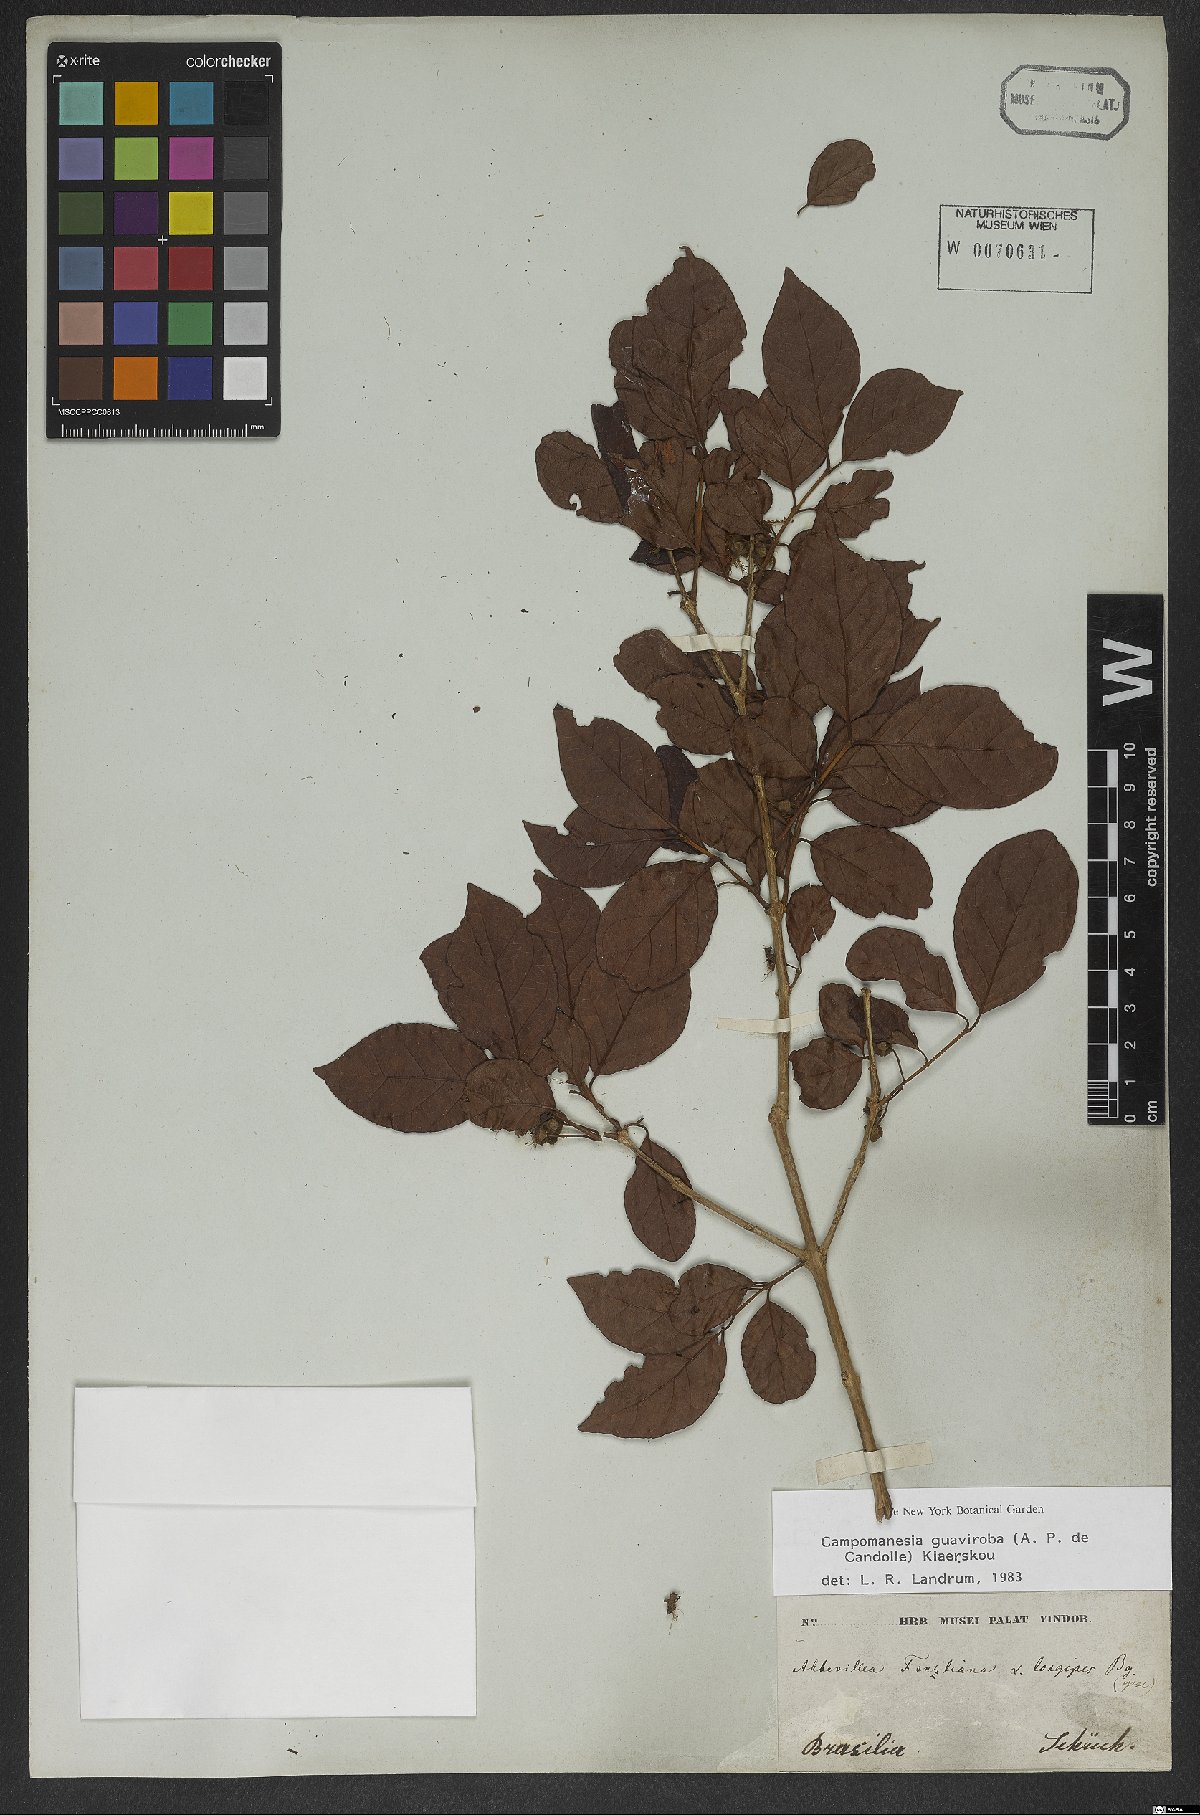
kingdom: Plantae
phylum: Tracheophyta
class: Magnoliopsida
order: Myrtales
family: Myrtaceae
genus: Campomanesia
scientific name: Campomanesia guaviroba
